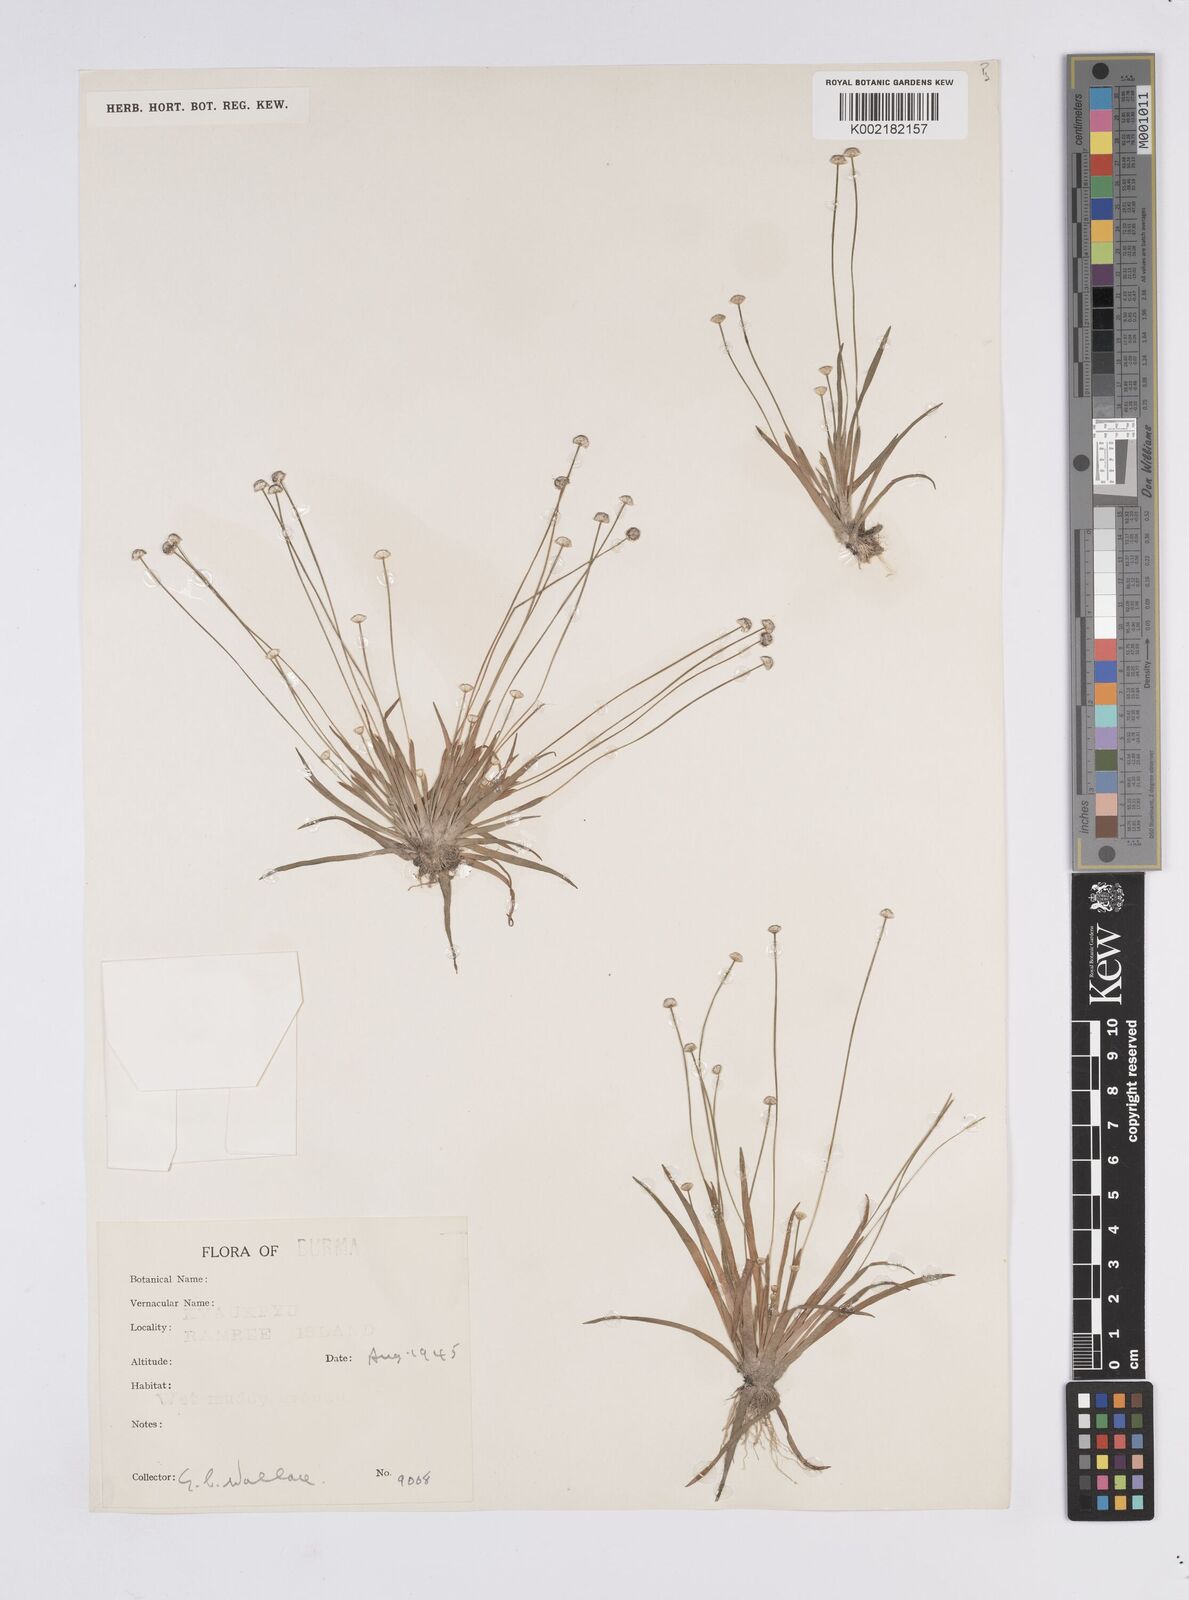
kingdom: Plantae
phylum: Tracheophyta
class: Liliopsida
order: Poales
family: Eriocaulaceae
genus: Eriocaulon
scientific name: Eriocaulon
